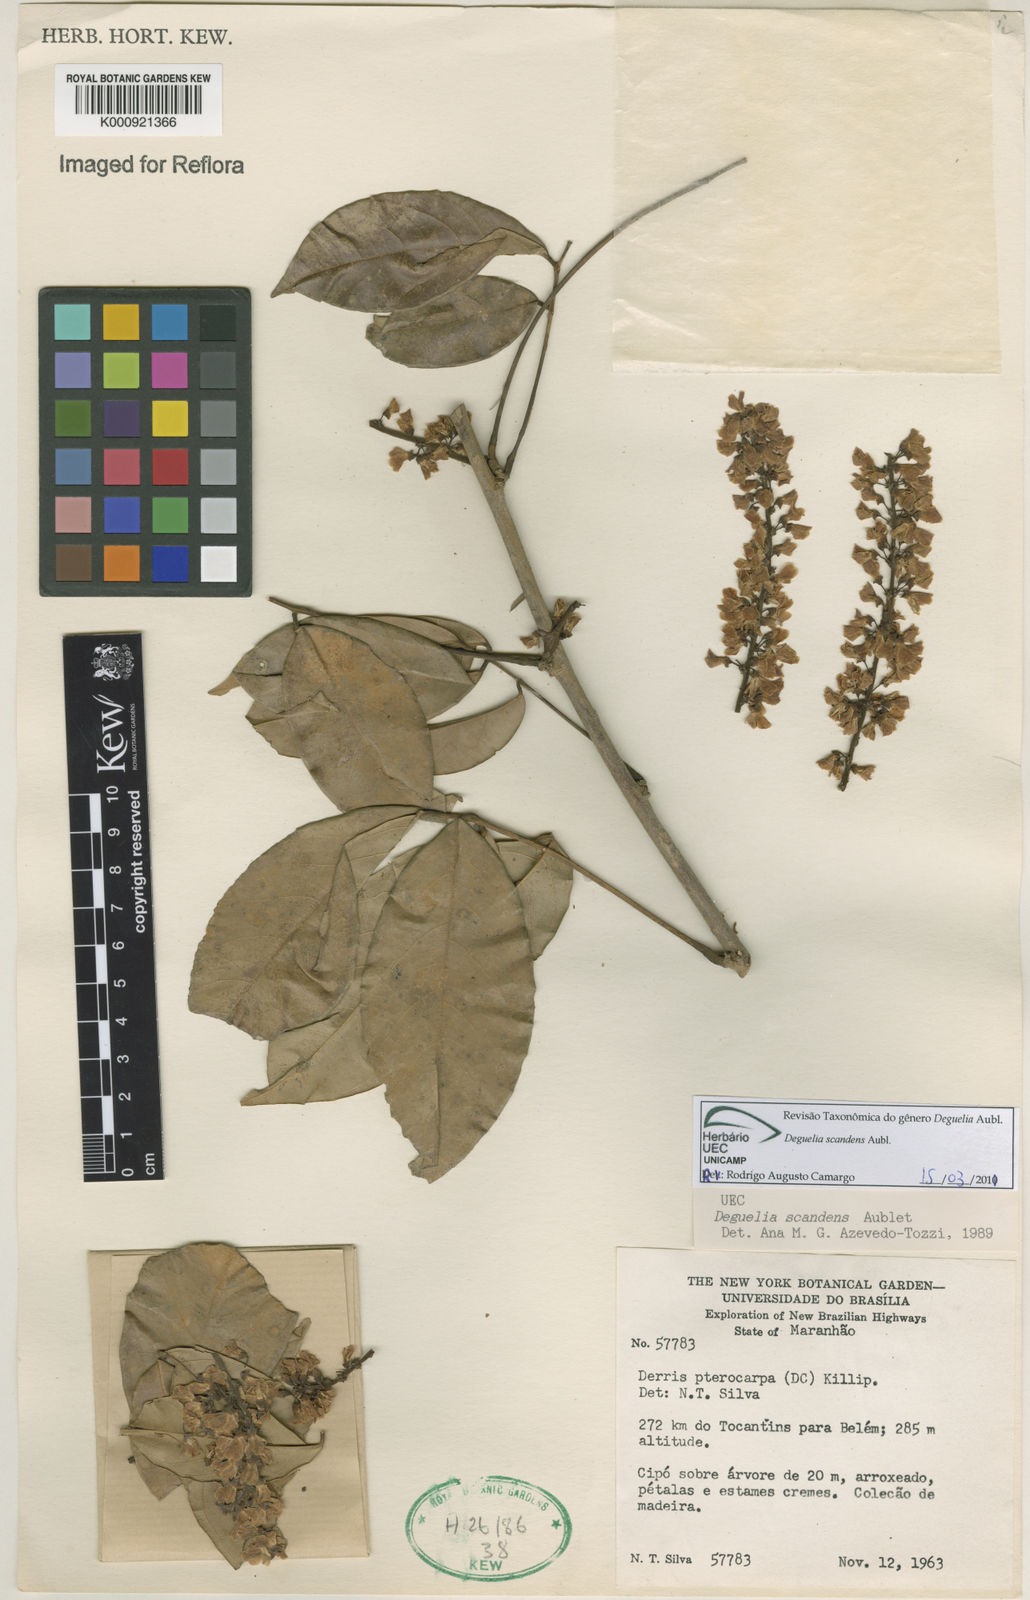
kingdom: Plantae
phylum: Tracheophyta
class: Magnoliopsida
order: Fabales
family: Fabaceae
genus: Deguelia
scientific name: Deguelia scandens
